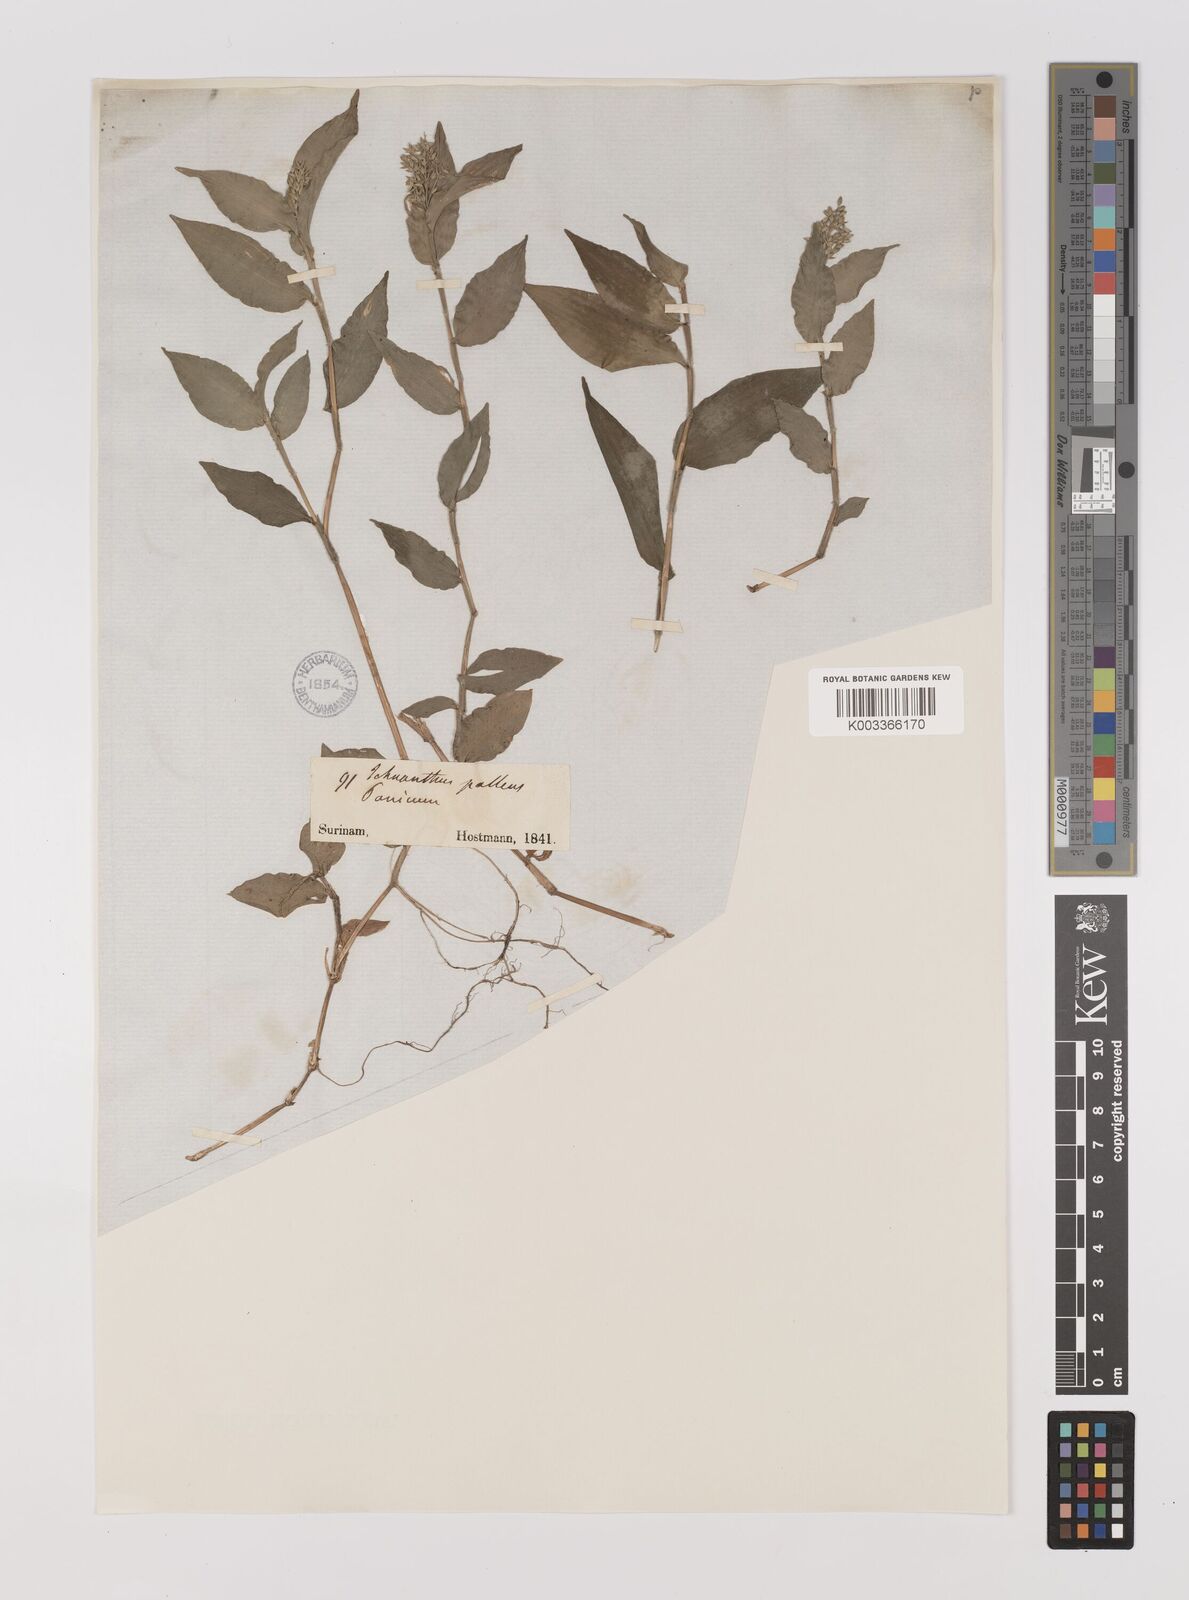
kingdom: Plantae
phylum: Tracheophyta
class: Liliopsida
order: Poales
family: Poaceae
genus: Ichnanthus
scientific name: Ichnanthus pallens
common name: Water grass
